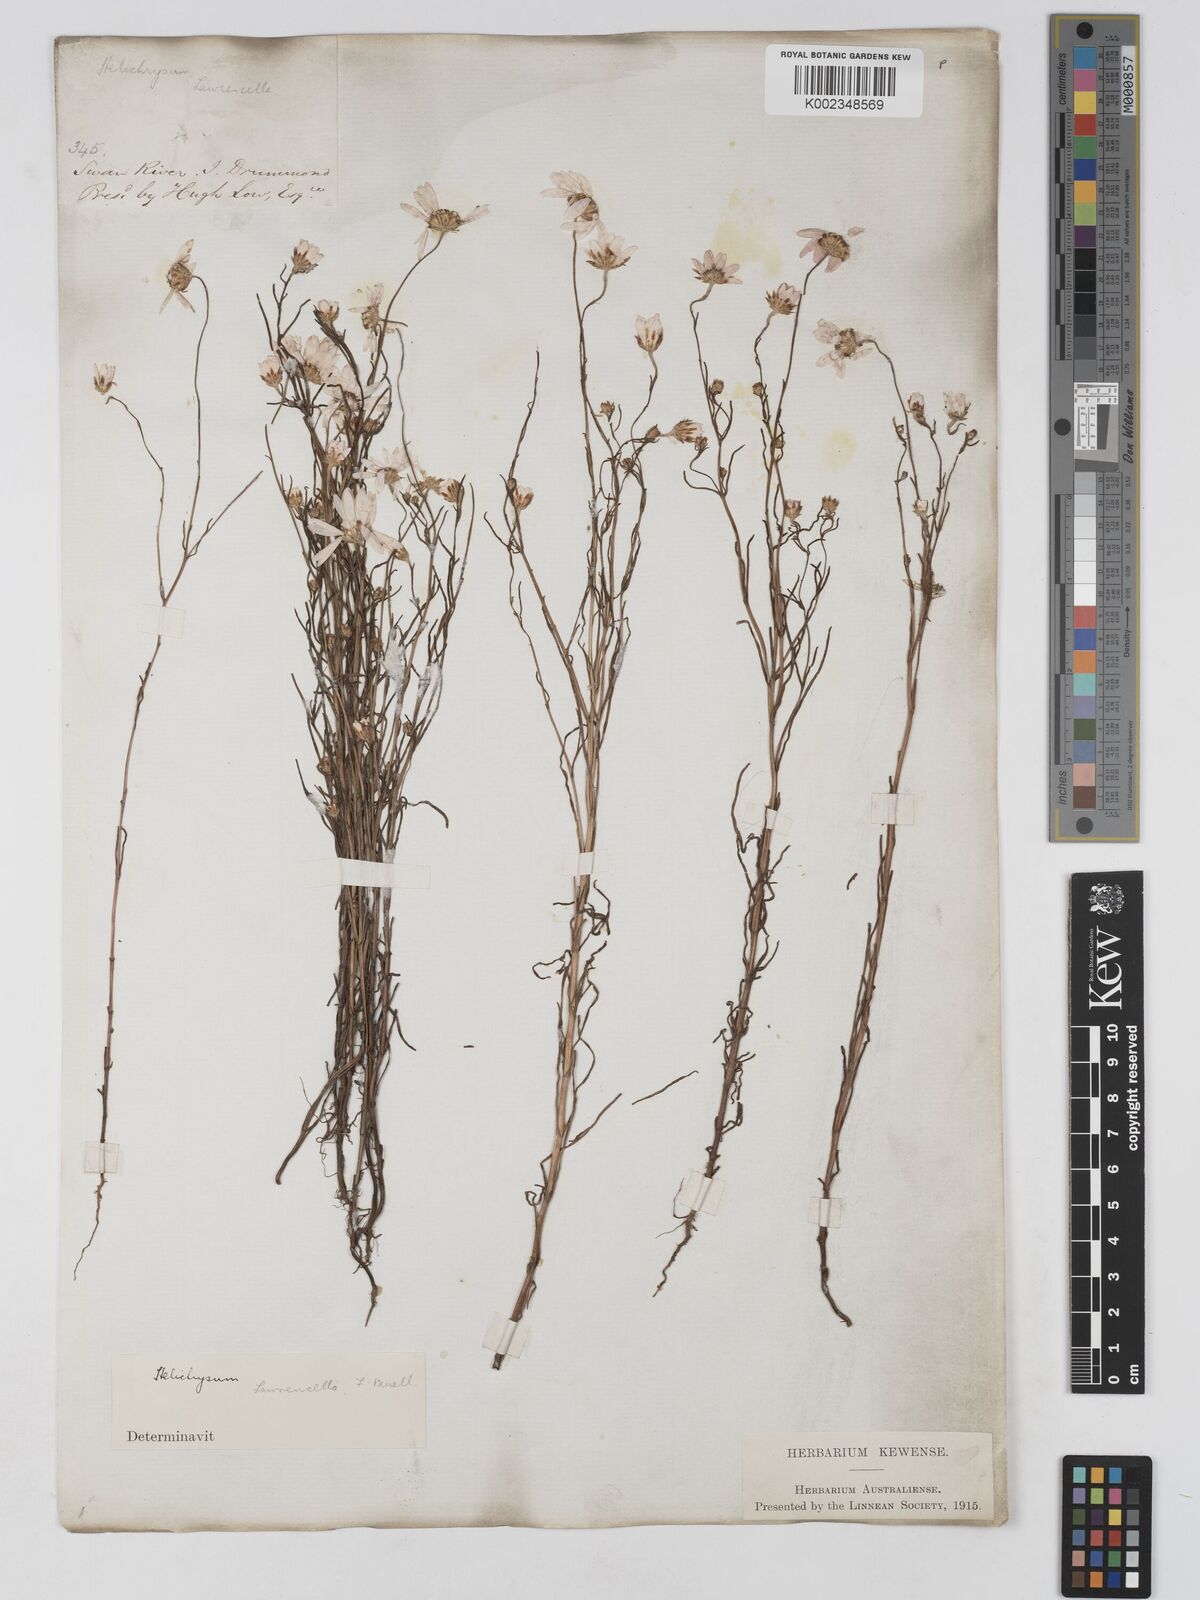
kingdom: Plantae
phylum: Tracheophyta
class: Magnoliopsida
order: Asterales
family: Asteraceae
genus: Lawrencella
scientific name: Lawrencella rosea
